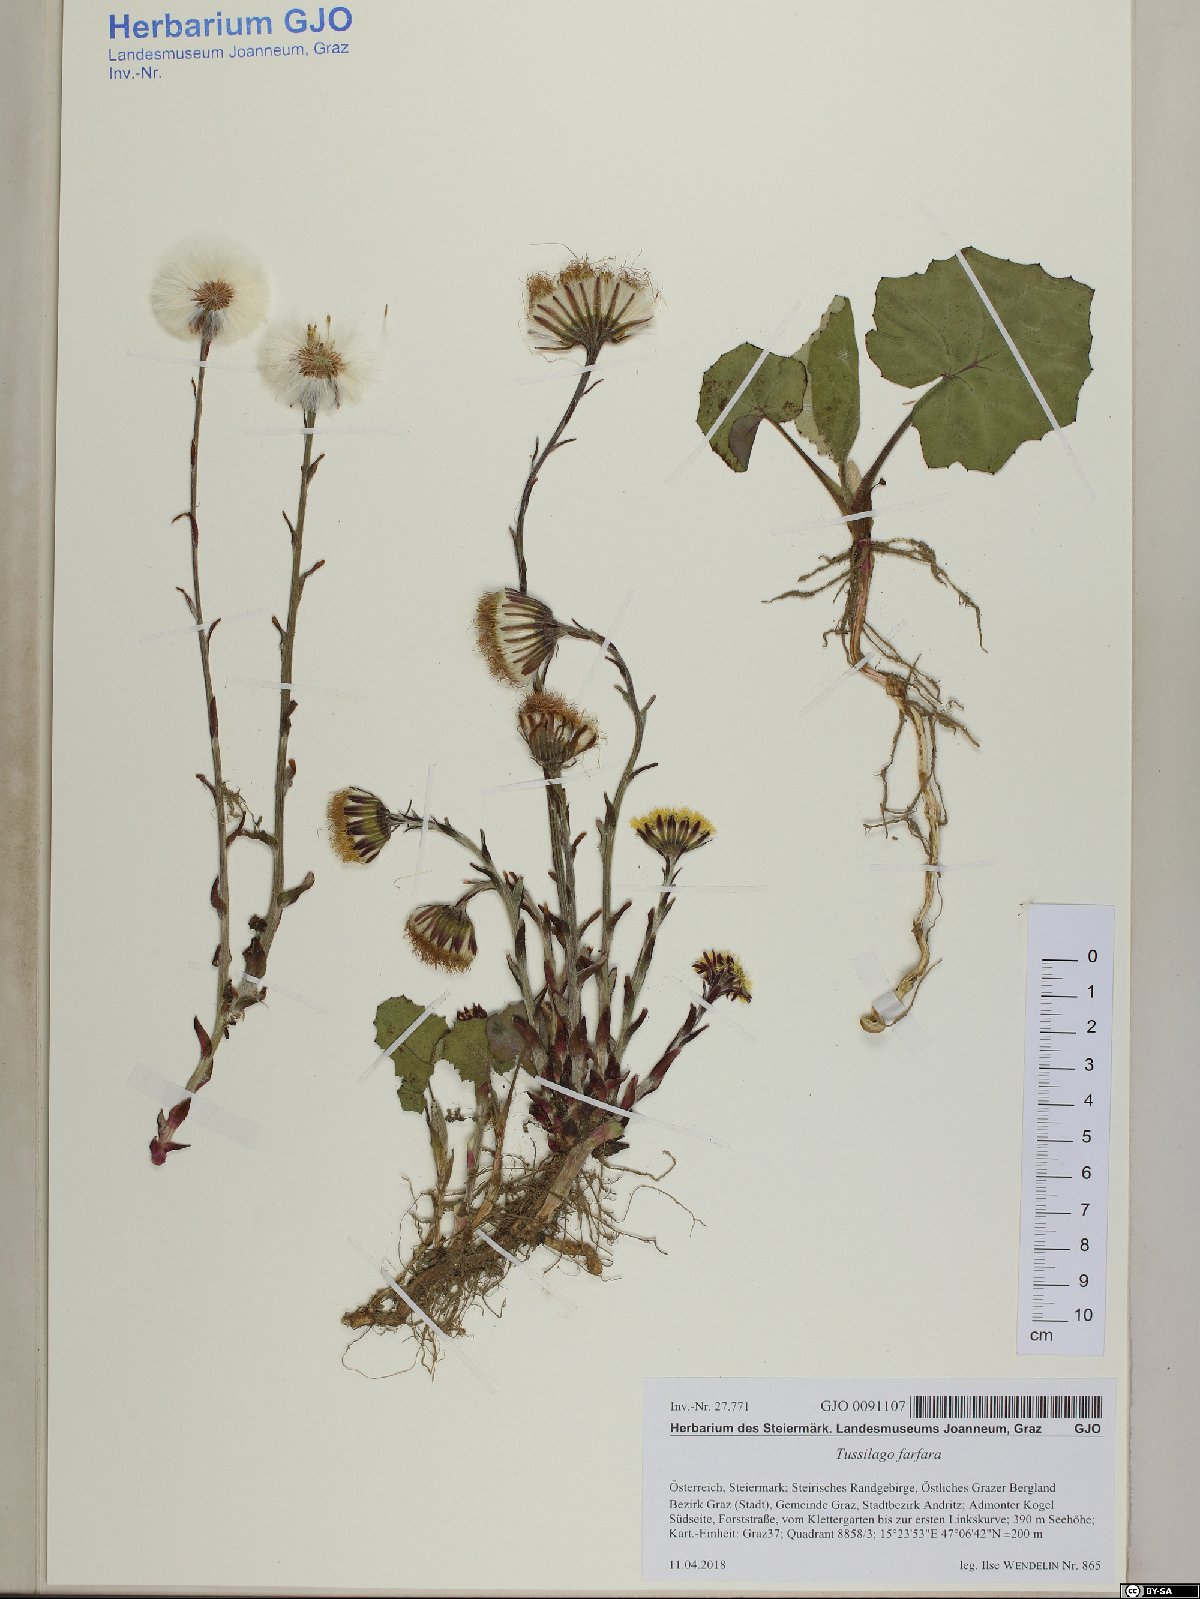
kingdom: Plantae
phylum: Tracheophyta
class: Magnoliopsida
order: Asterales
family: Asteraceae
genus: Tussilago
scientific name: Tussilago farfara
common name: Coltsfoot
